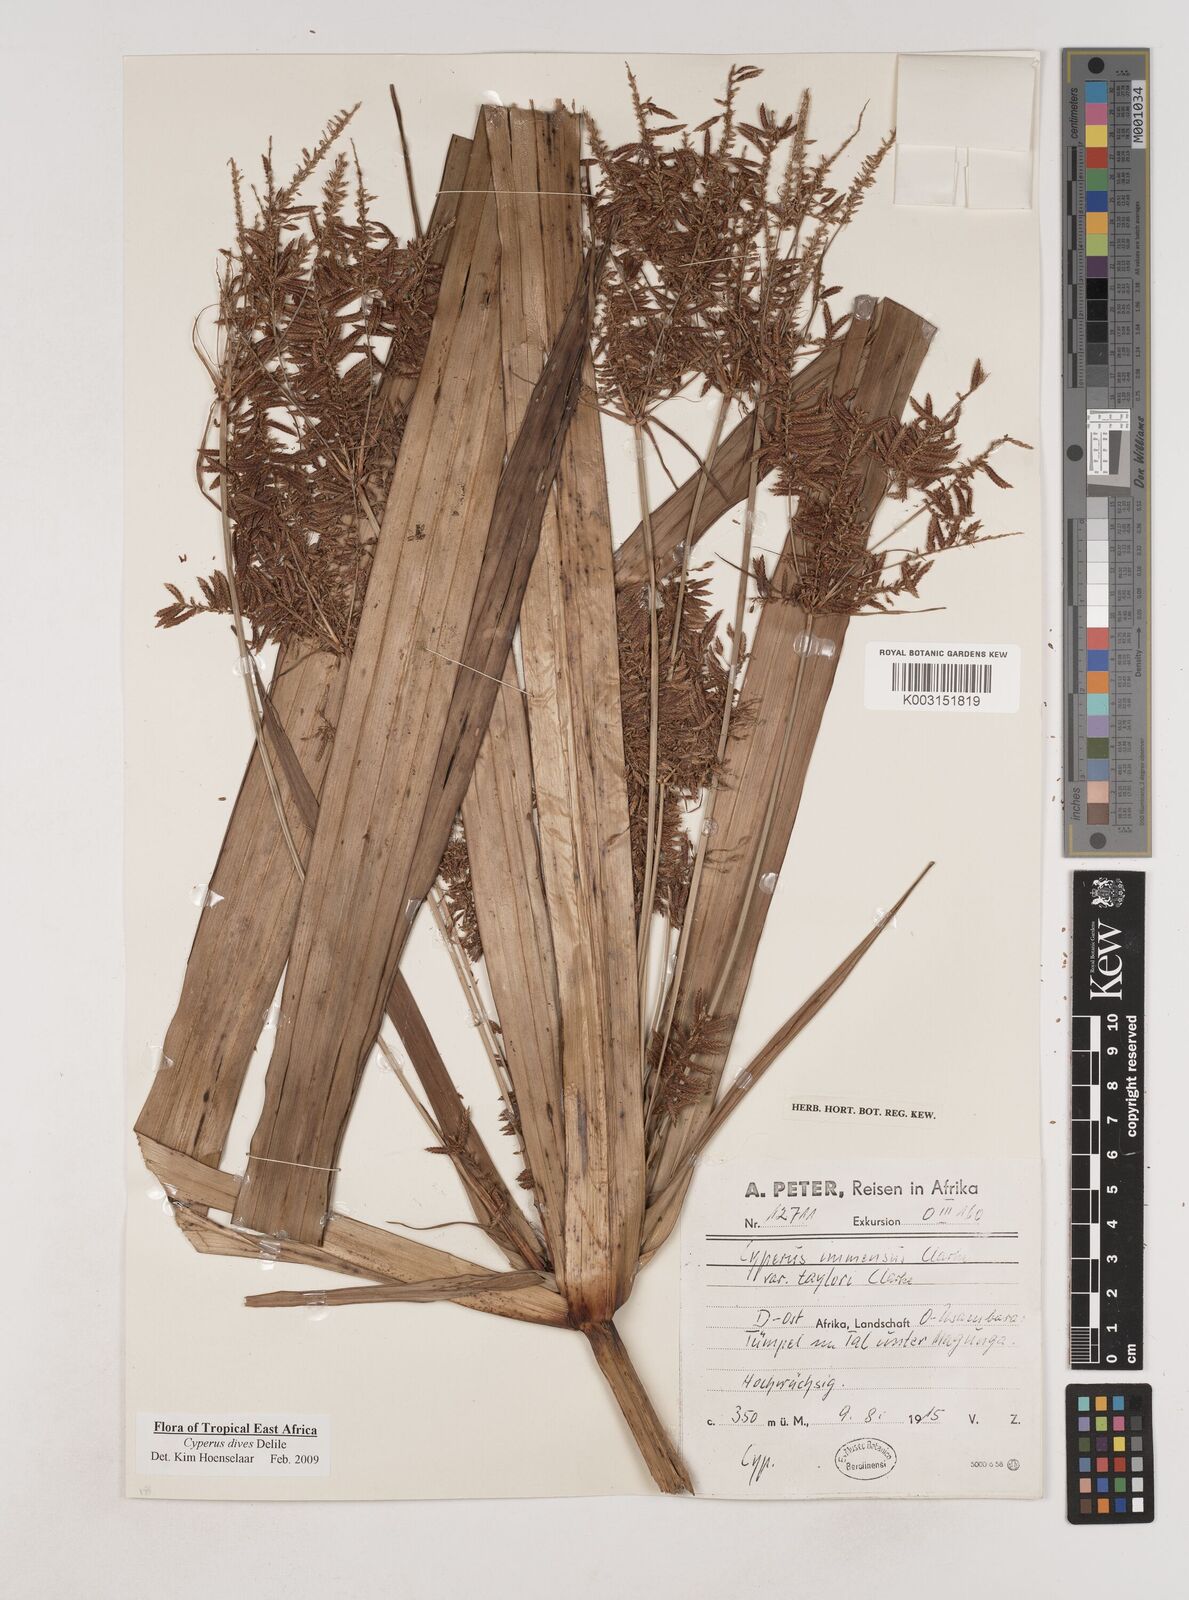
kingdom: Plantae
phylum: Tracheophyta
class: Liliopsida
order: Poales
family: Cyperaceae
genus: Cyperus
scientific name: Cyperus
